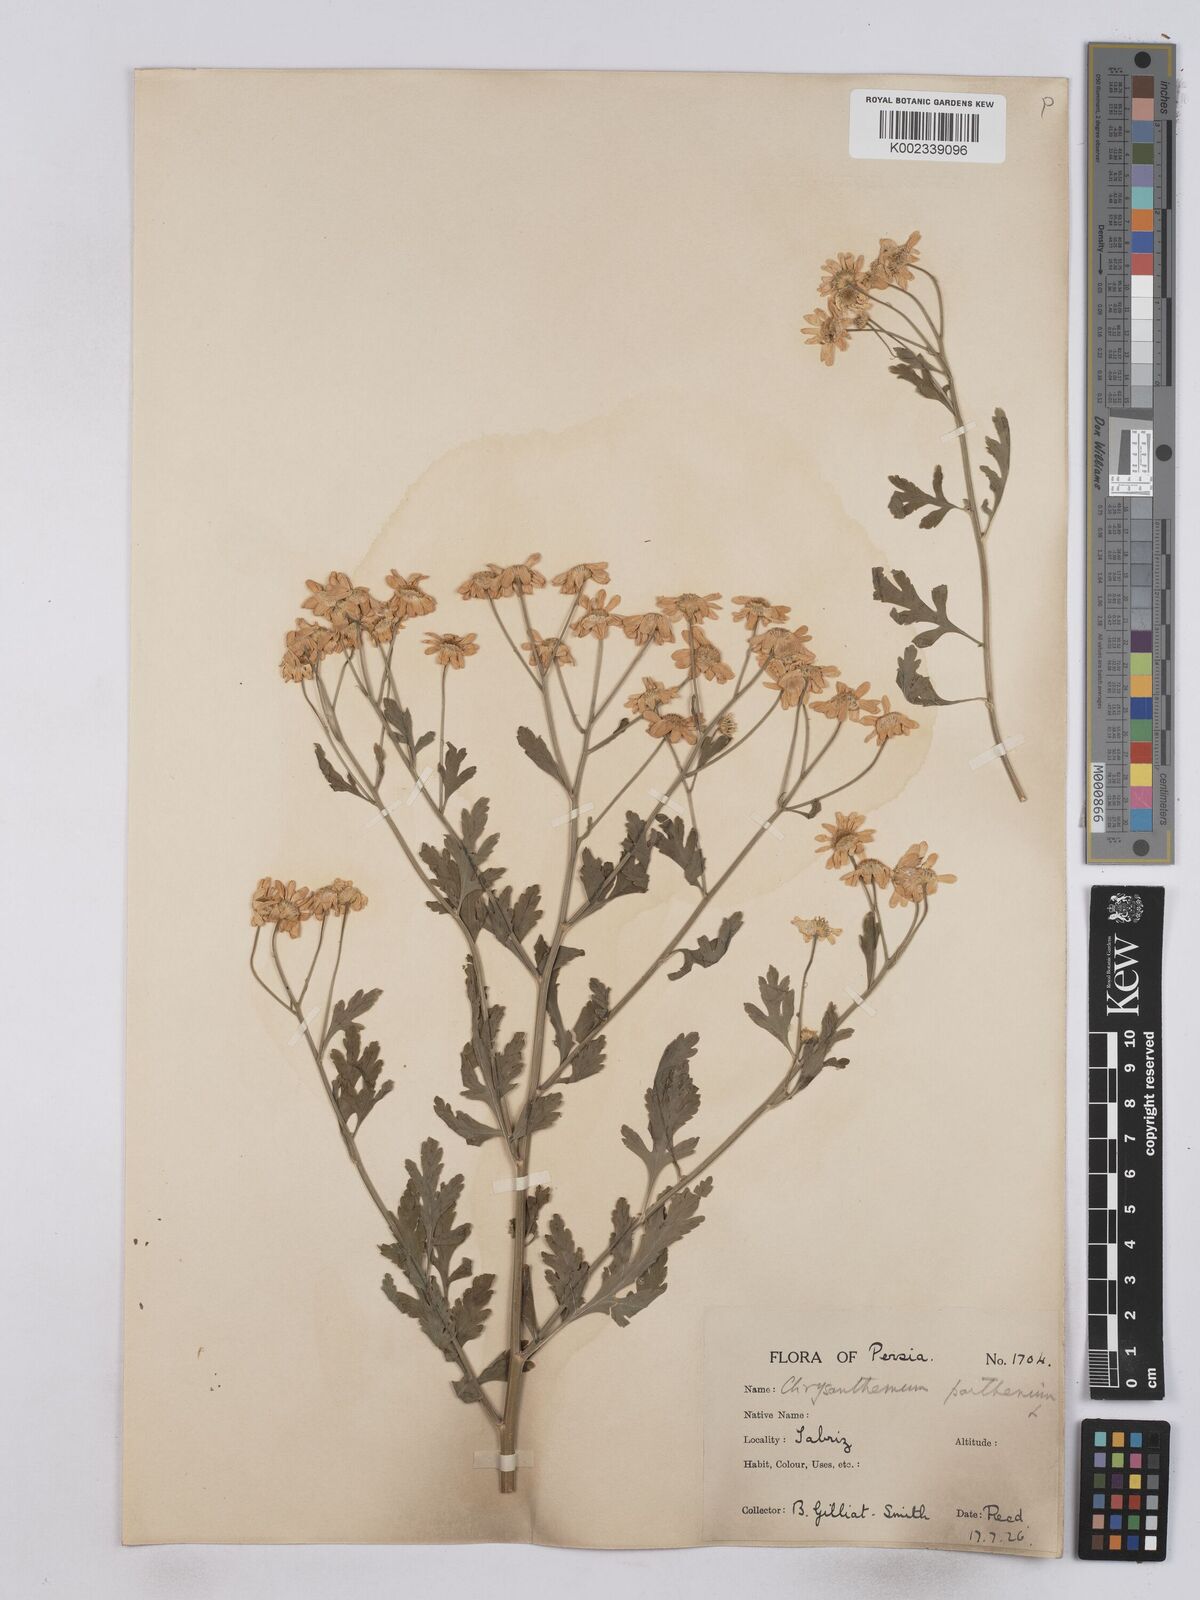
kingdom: Plantae
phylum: Tracheophyta
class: Magnoliopsida
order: Asterales
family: Asteraceae
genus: Tanacetum
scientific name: Tanacetum parthenium
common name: Feverfew
